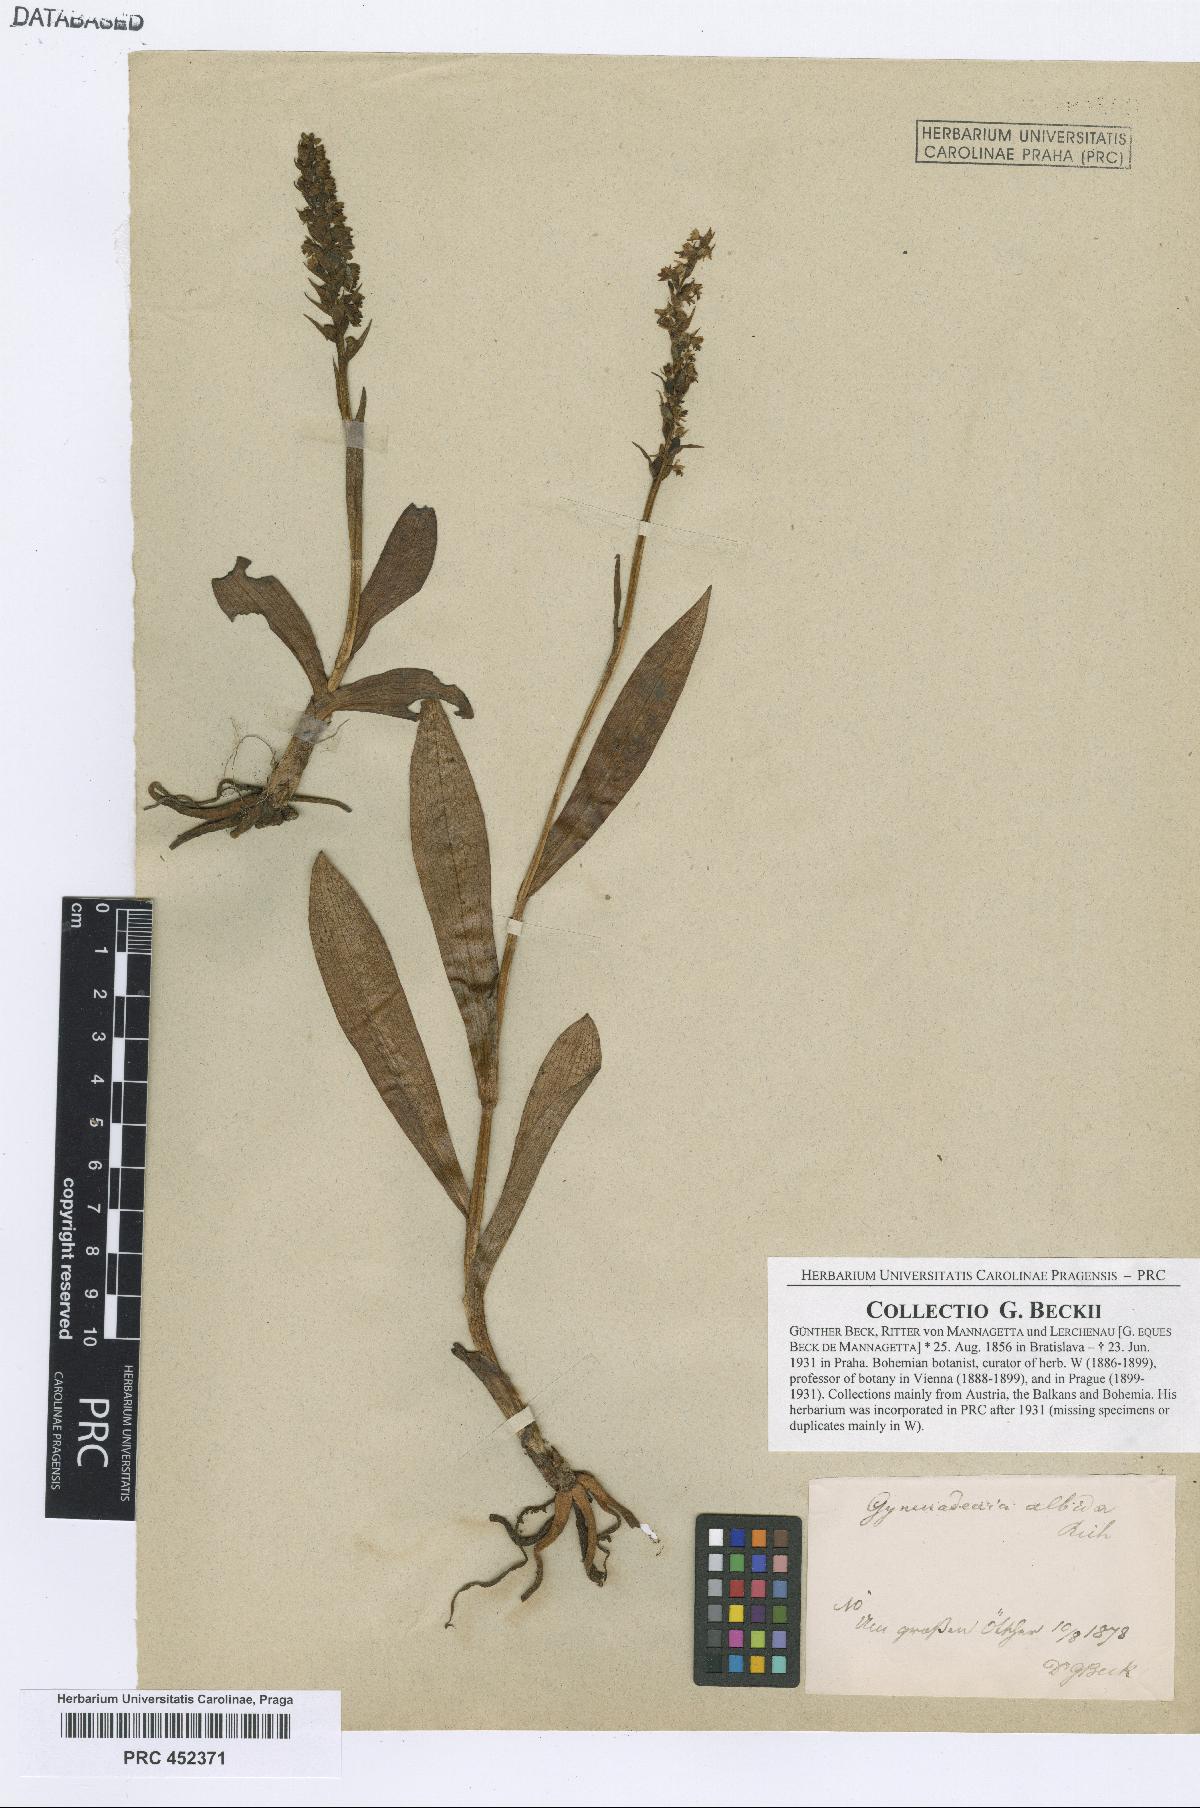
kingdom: Plantae
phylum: Tracheophyta
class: Liliopsida
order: Asparagales
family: Orchidaceae
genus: Pseudorchis
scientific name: Pseudorchis albida
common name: Small-white orchid
